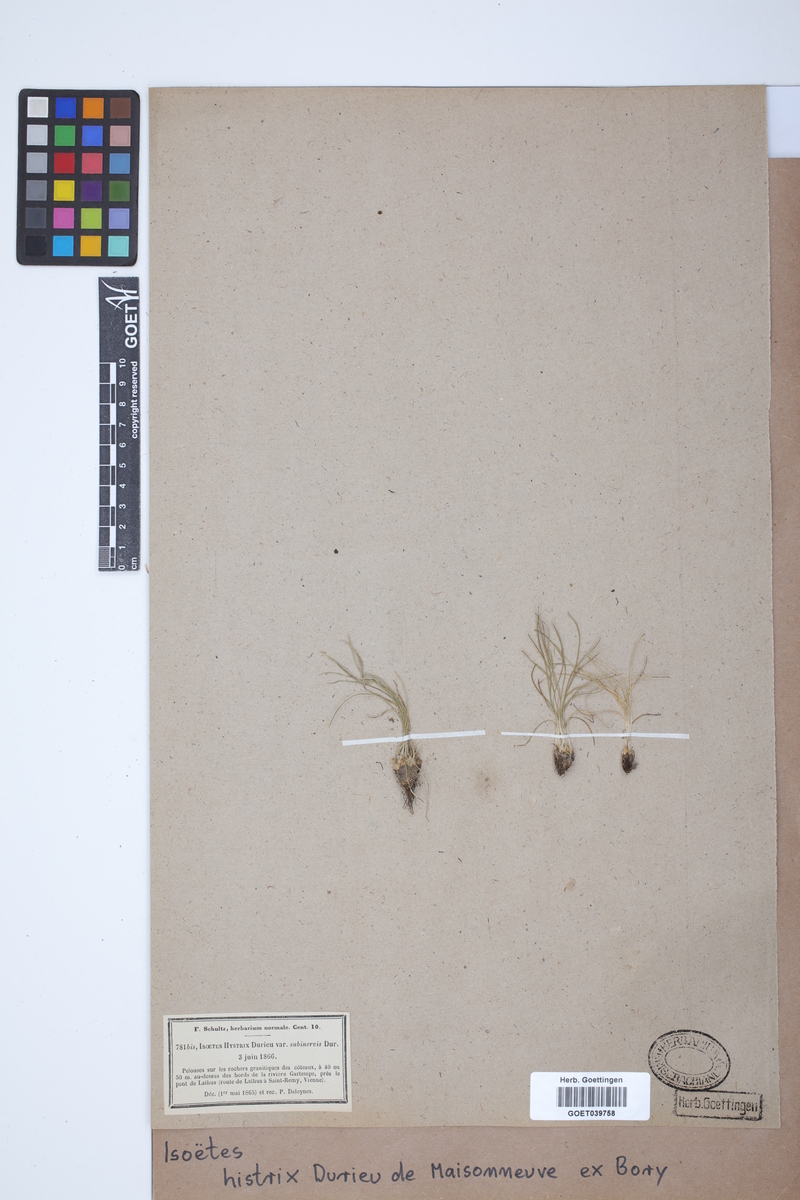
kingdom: Plantae
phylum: Tracheophyta
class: Lycopodiopsida
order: Isoetales
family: Isoetaceae
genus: Isoetes
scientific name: Isoetes histrix
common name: Land quillwort
